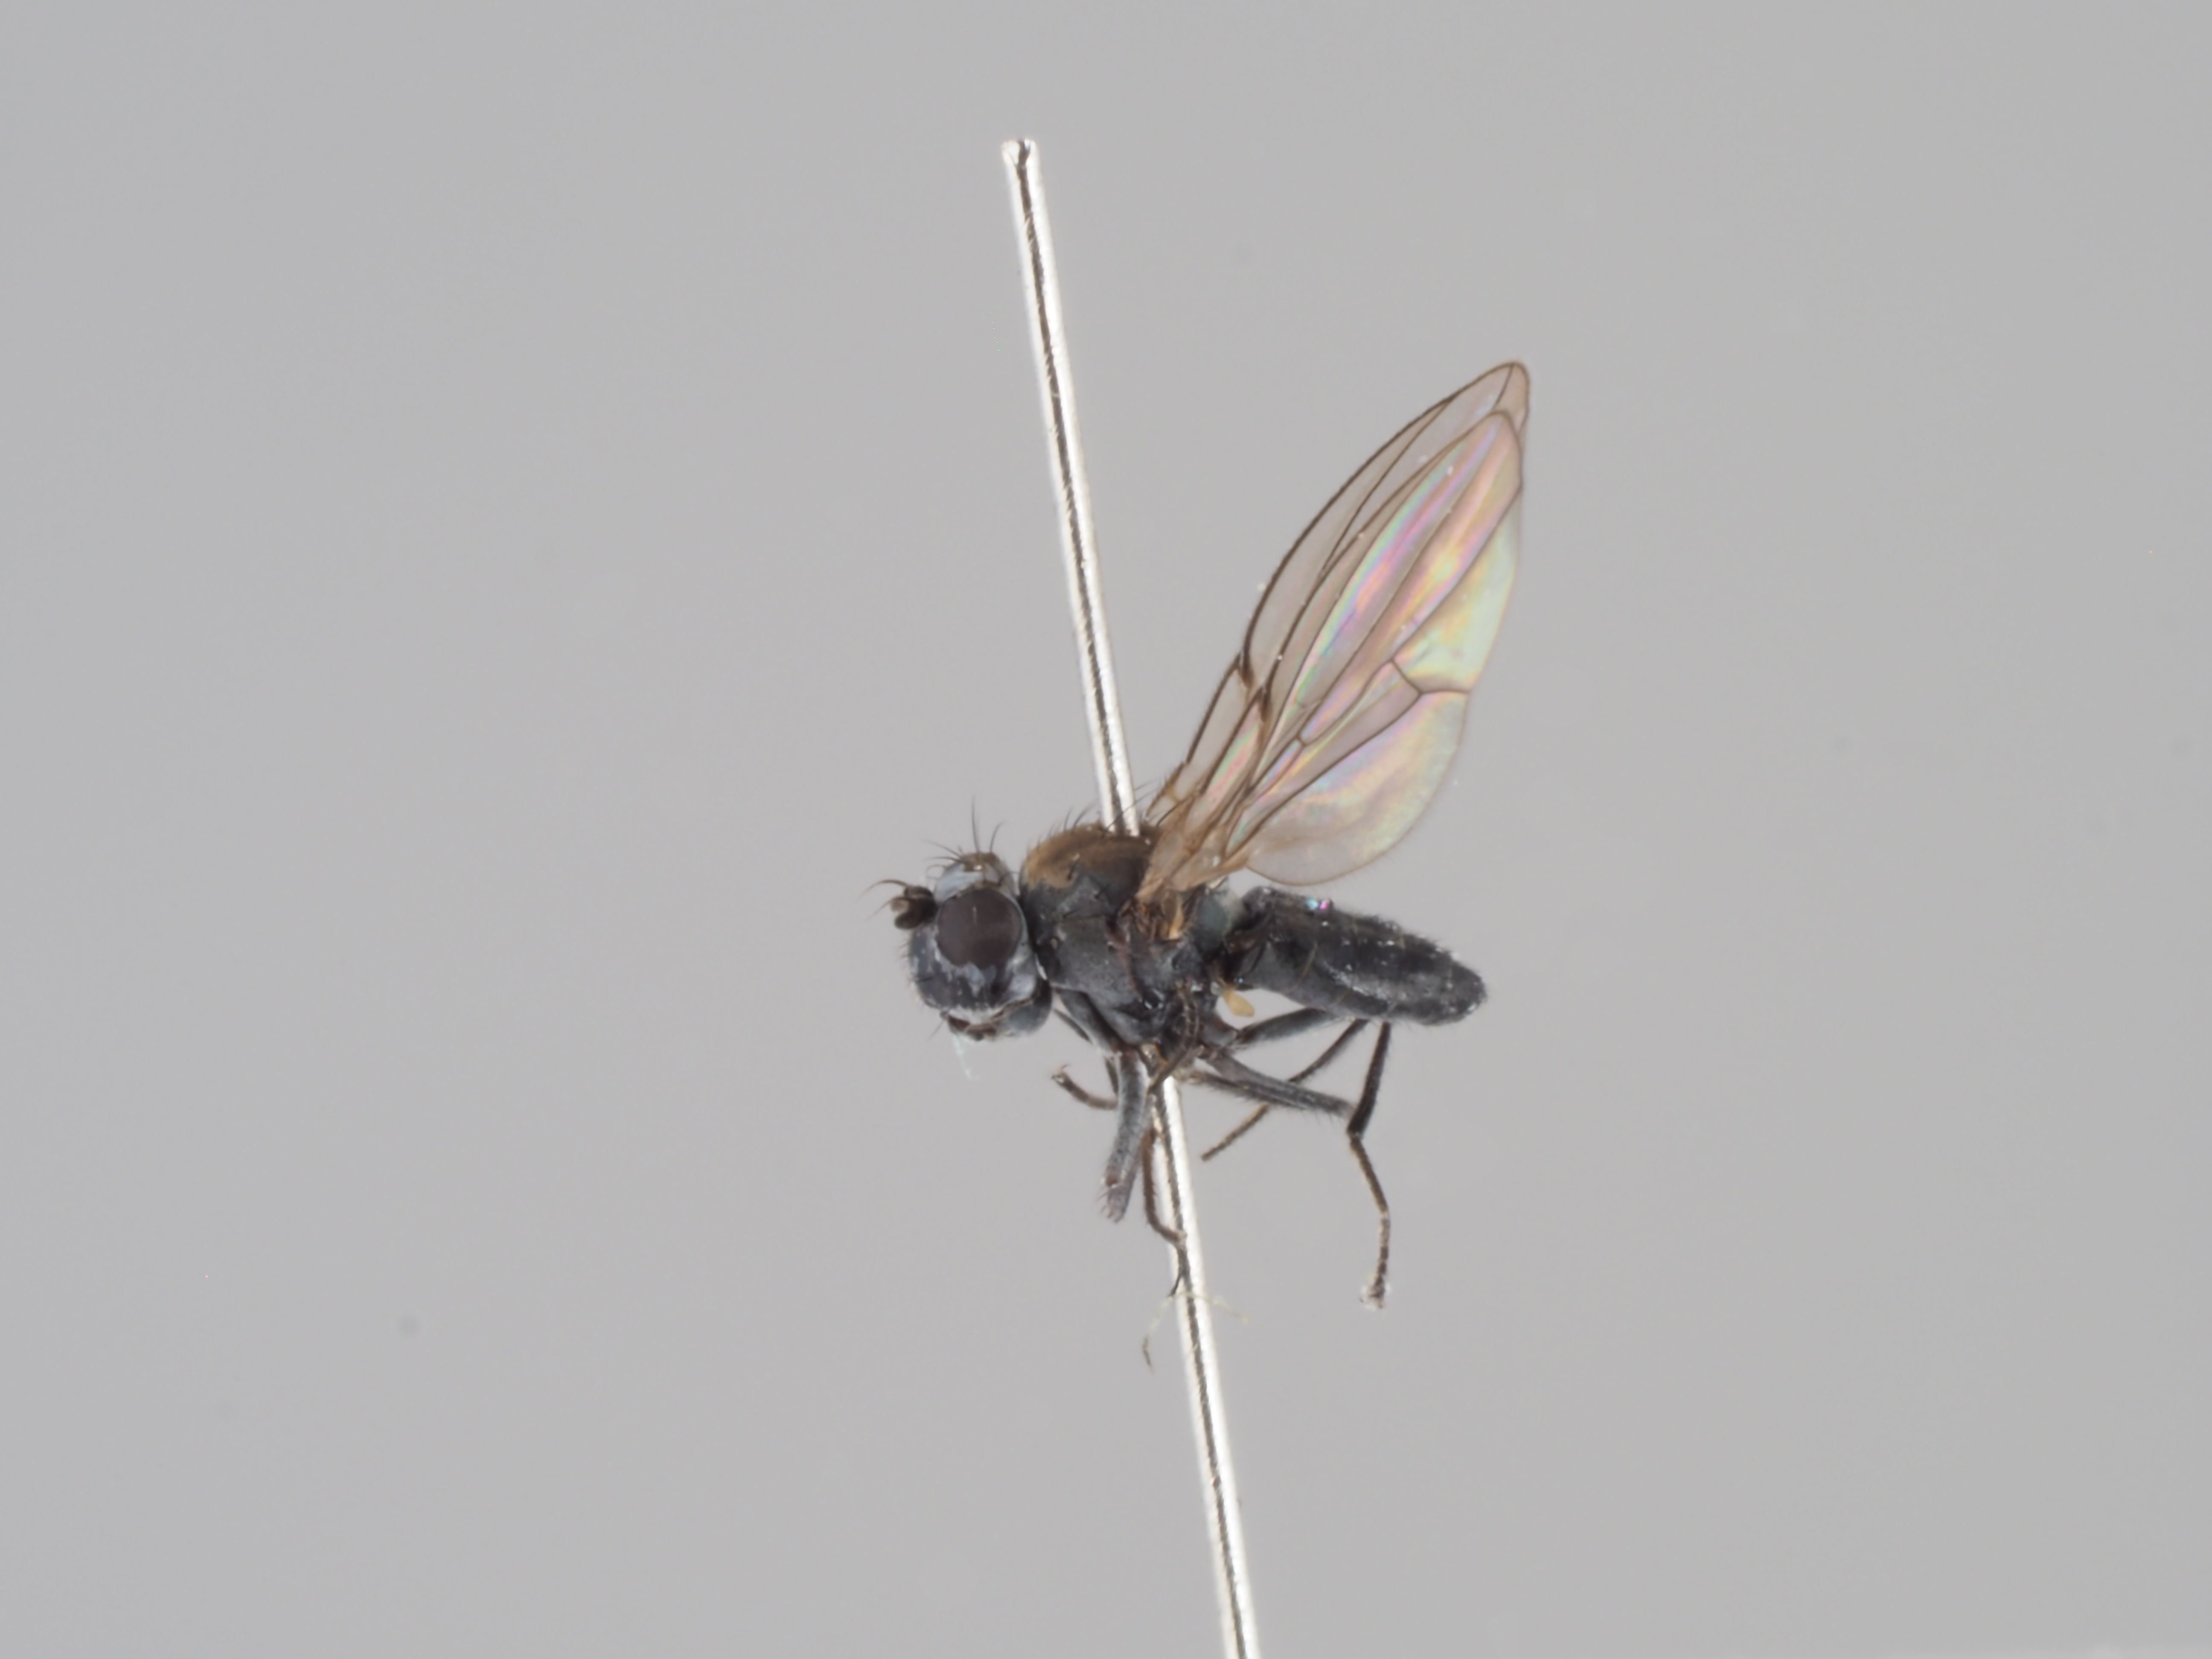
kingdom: Animalia
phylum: Arthropoda
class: Insecta
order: Diptera
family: Ephydridae
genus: Scatella
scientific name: Scatella paludum
